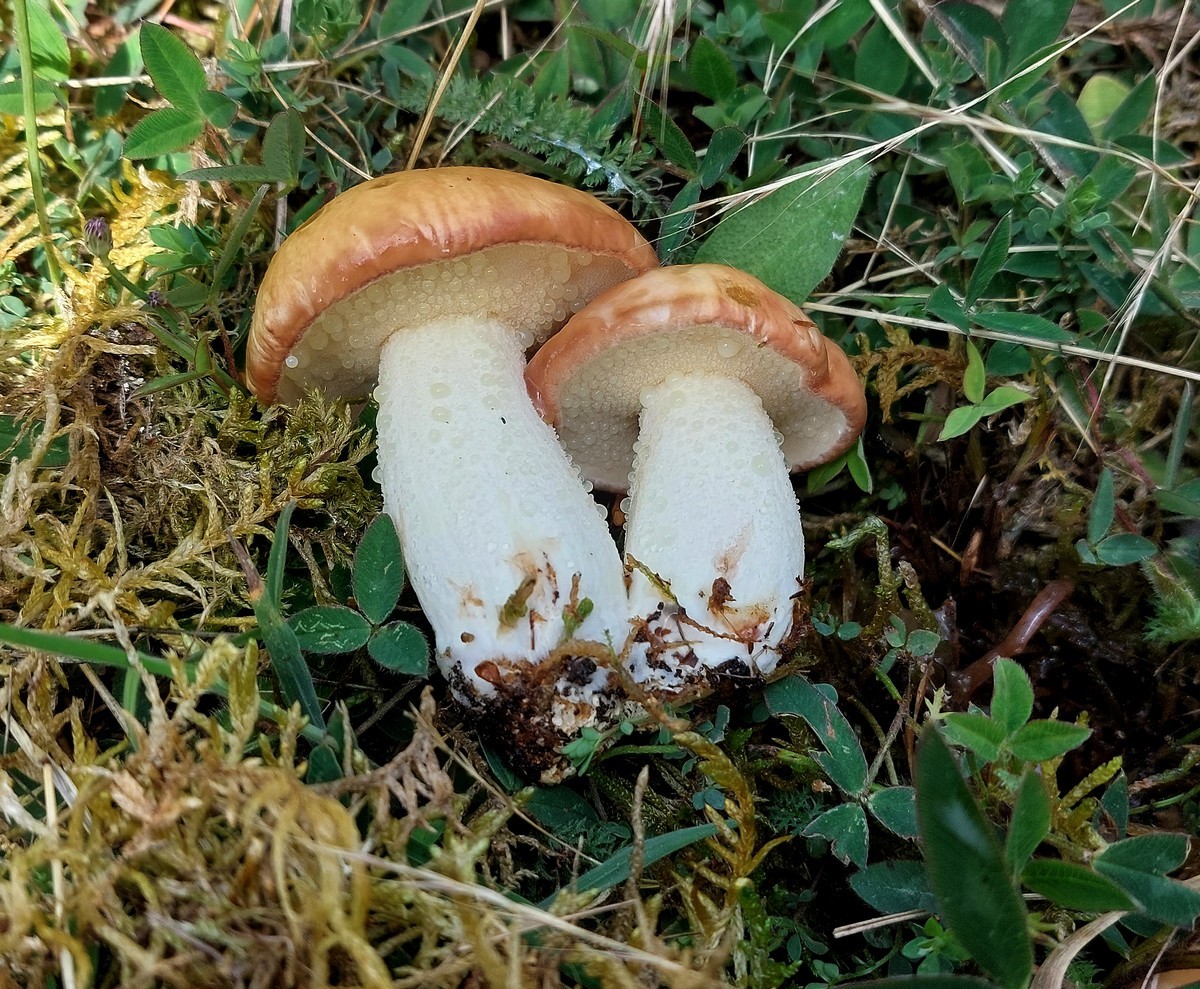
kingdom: Fungi
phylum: Basidiomycota
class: Agaricomycetes
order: Boletales
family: Suillaceae
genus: Suillus
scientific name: Suillus granulatus
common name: kornet slimrørhat
